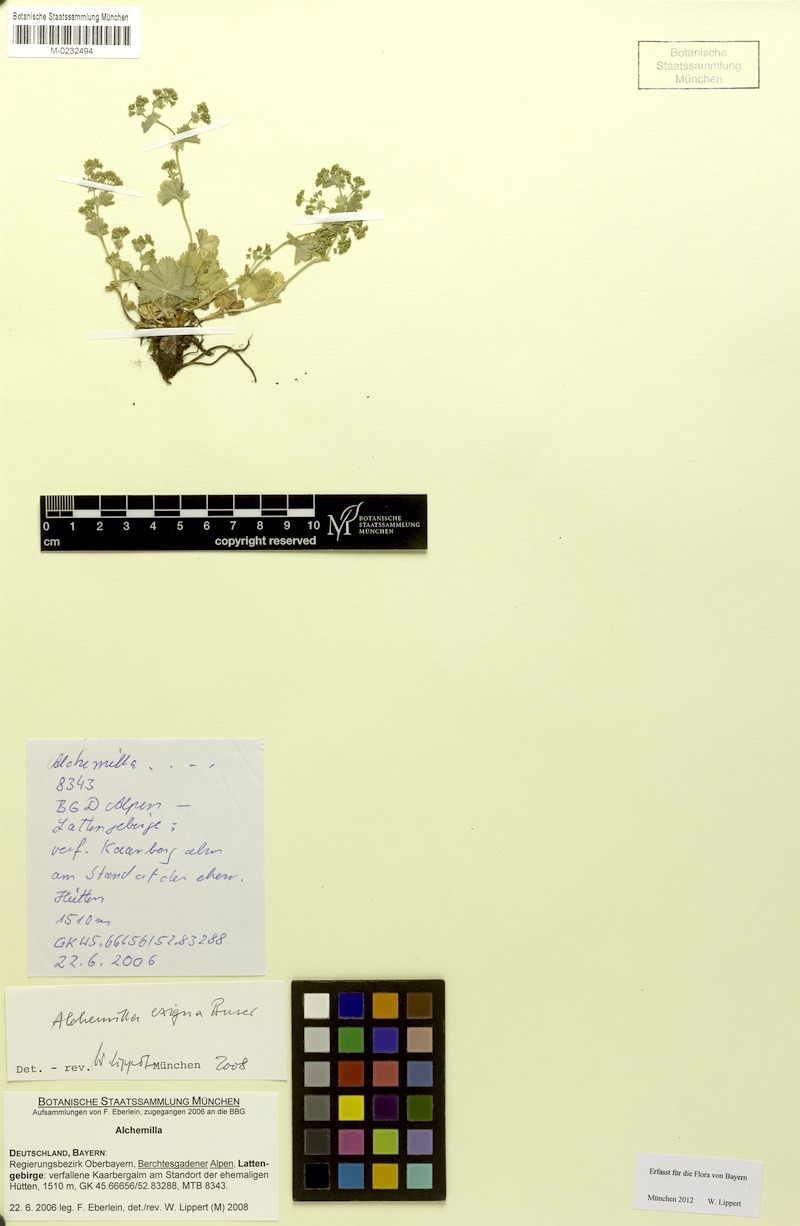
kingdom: Plantae
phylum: Tracheophyta
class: Magnoliopsida
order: Rosales
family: Rosaceae
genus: Alchemilla
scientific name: Alchemilla exigua
